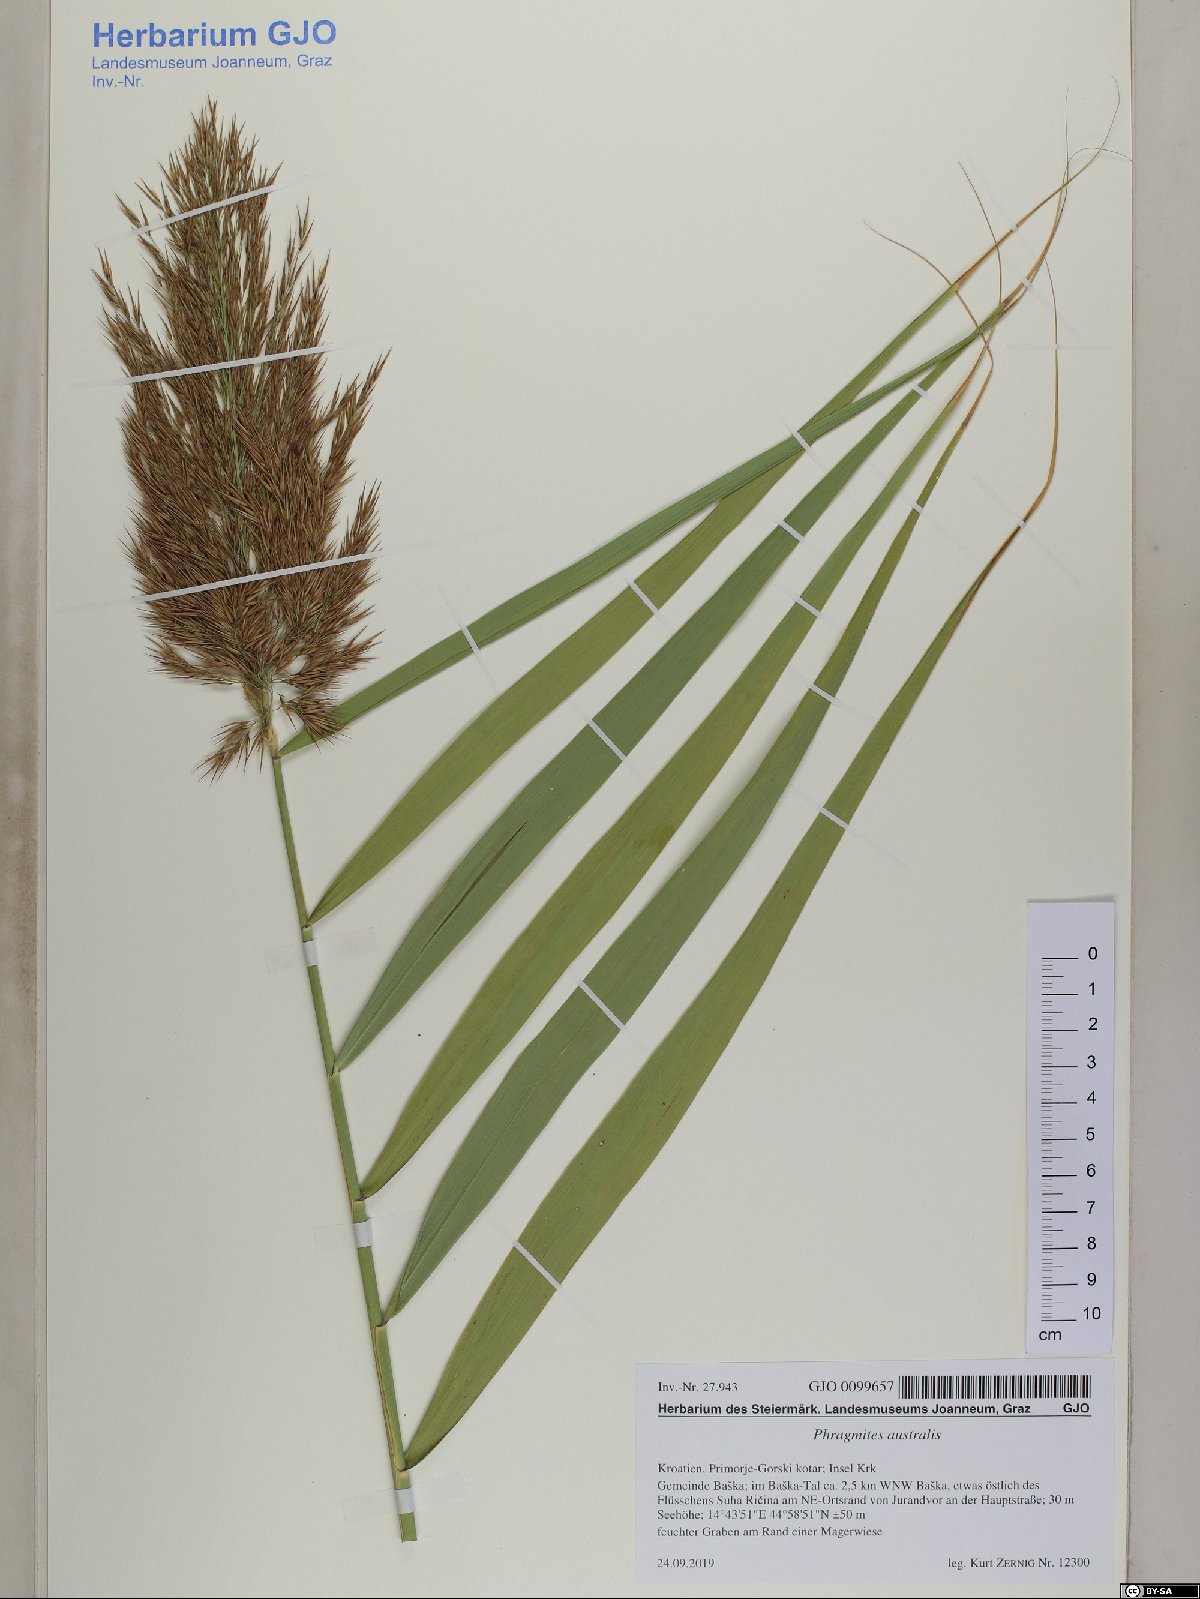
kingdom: Plantae
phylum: Tracheophyta
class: Liliopsida
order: Poales
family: Poaceae
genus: Phragmites
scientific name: Phragmites australis
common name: Common reed
